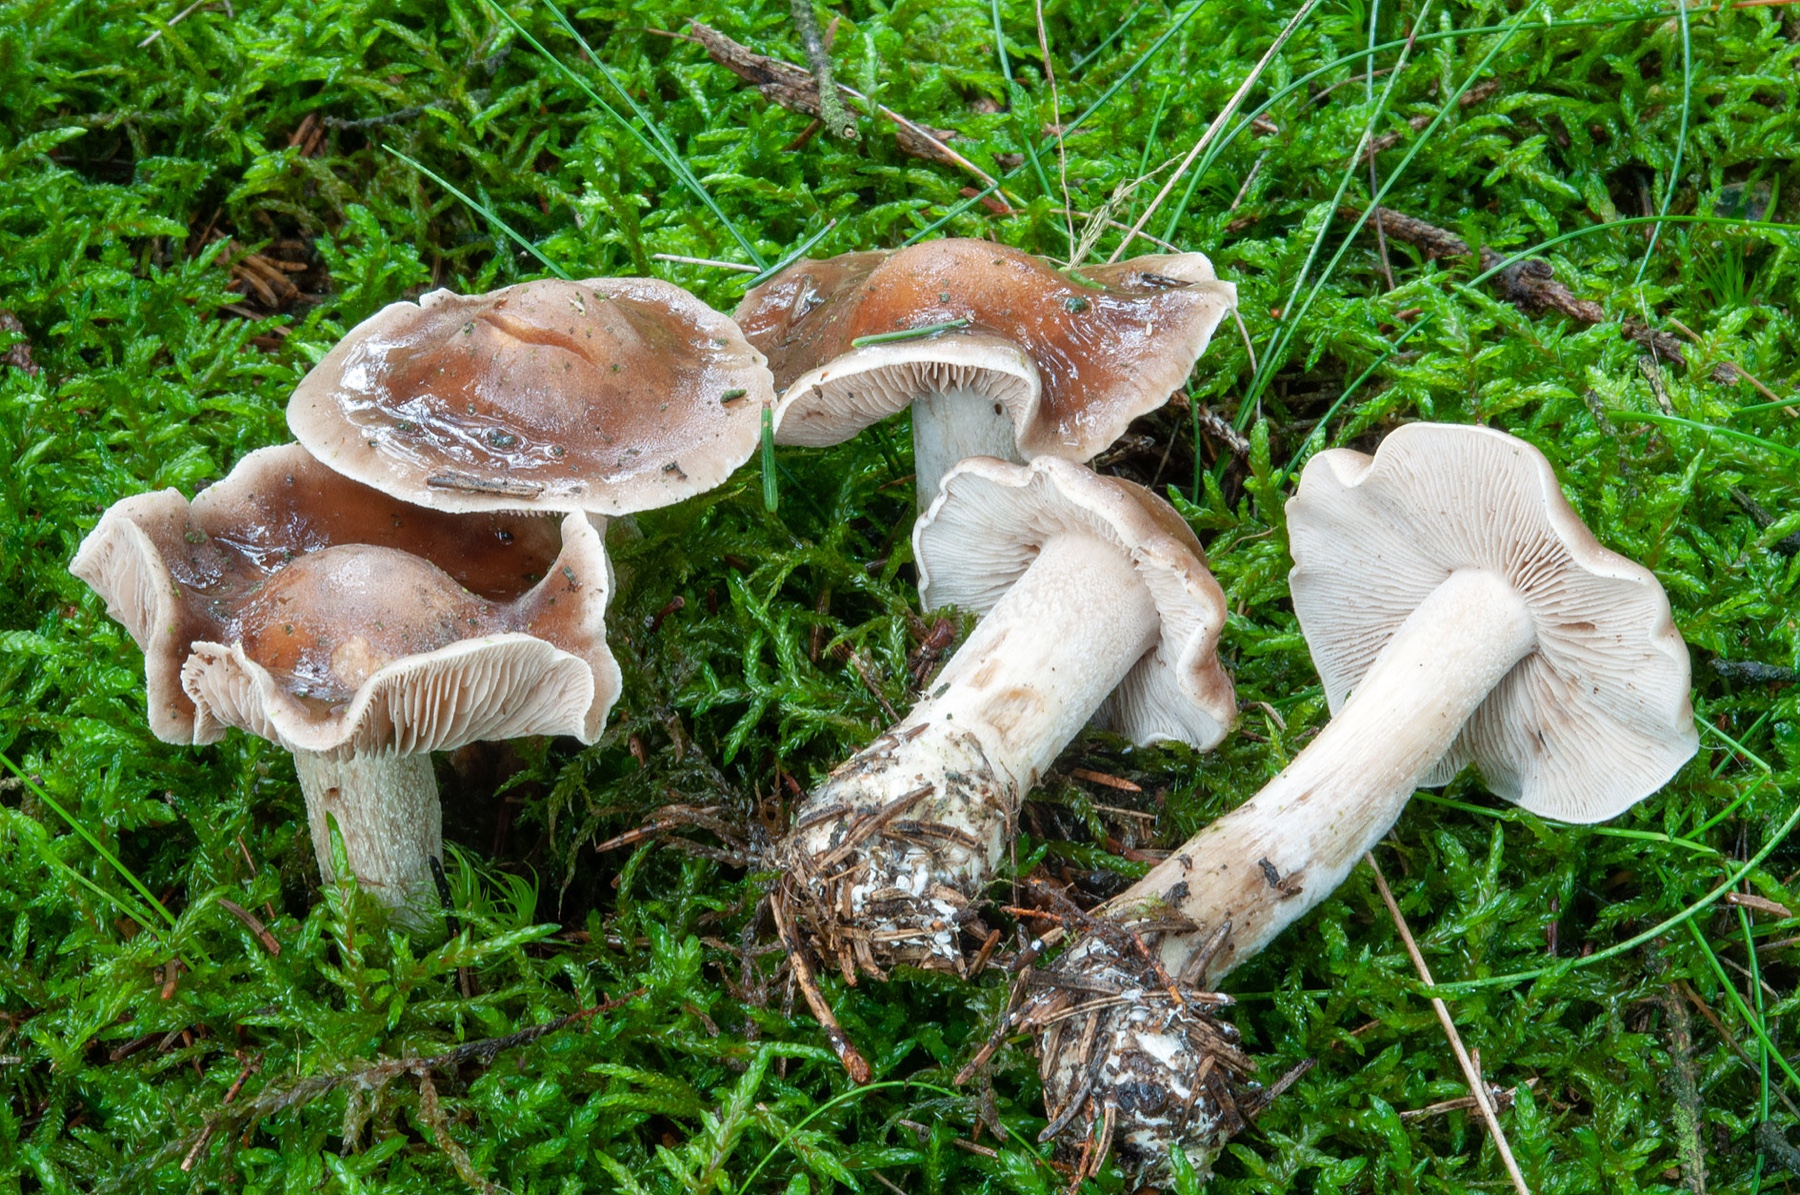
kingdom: Fungi
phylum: Basidiomycota
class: Agaricomycetes
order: Agaricales
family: Hymenogastraceae
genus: Hebeloma
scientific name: Hebeloma incarnatulum
